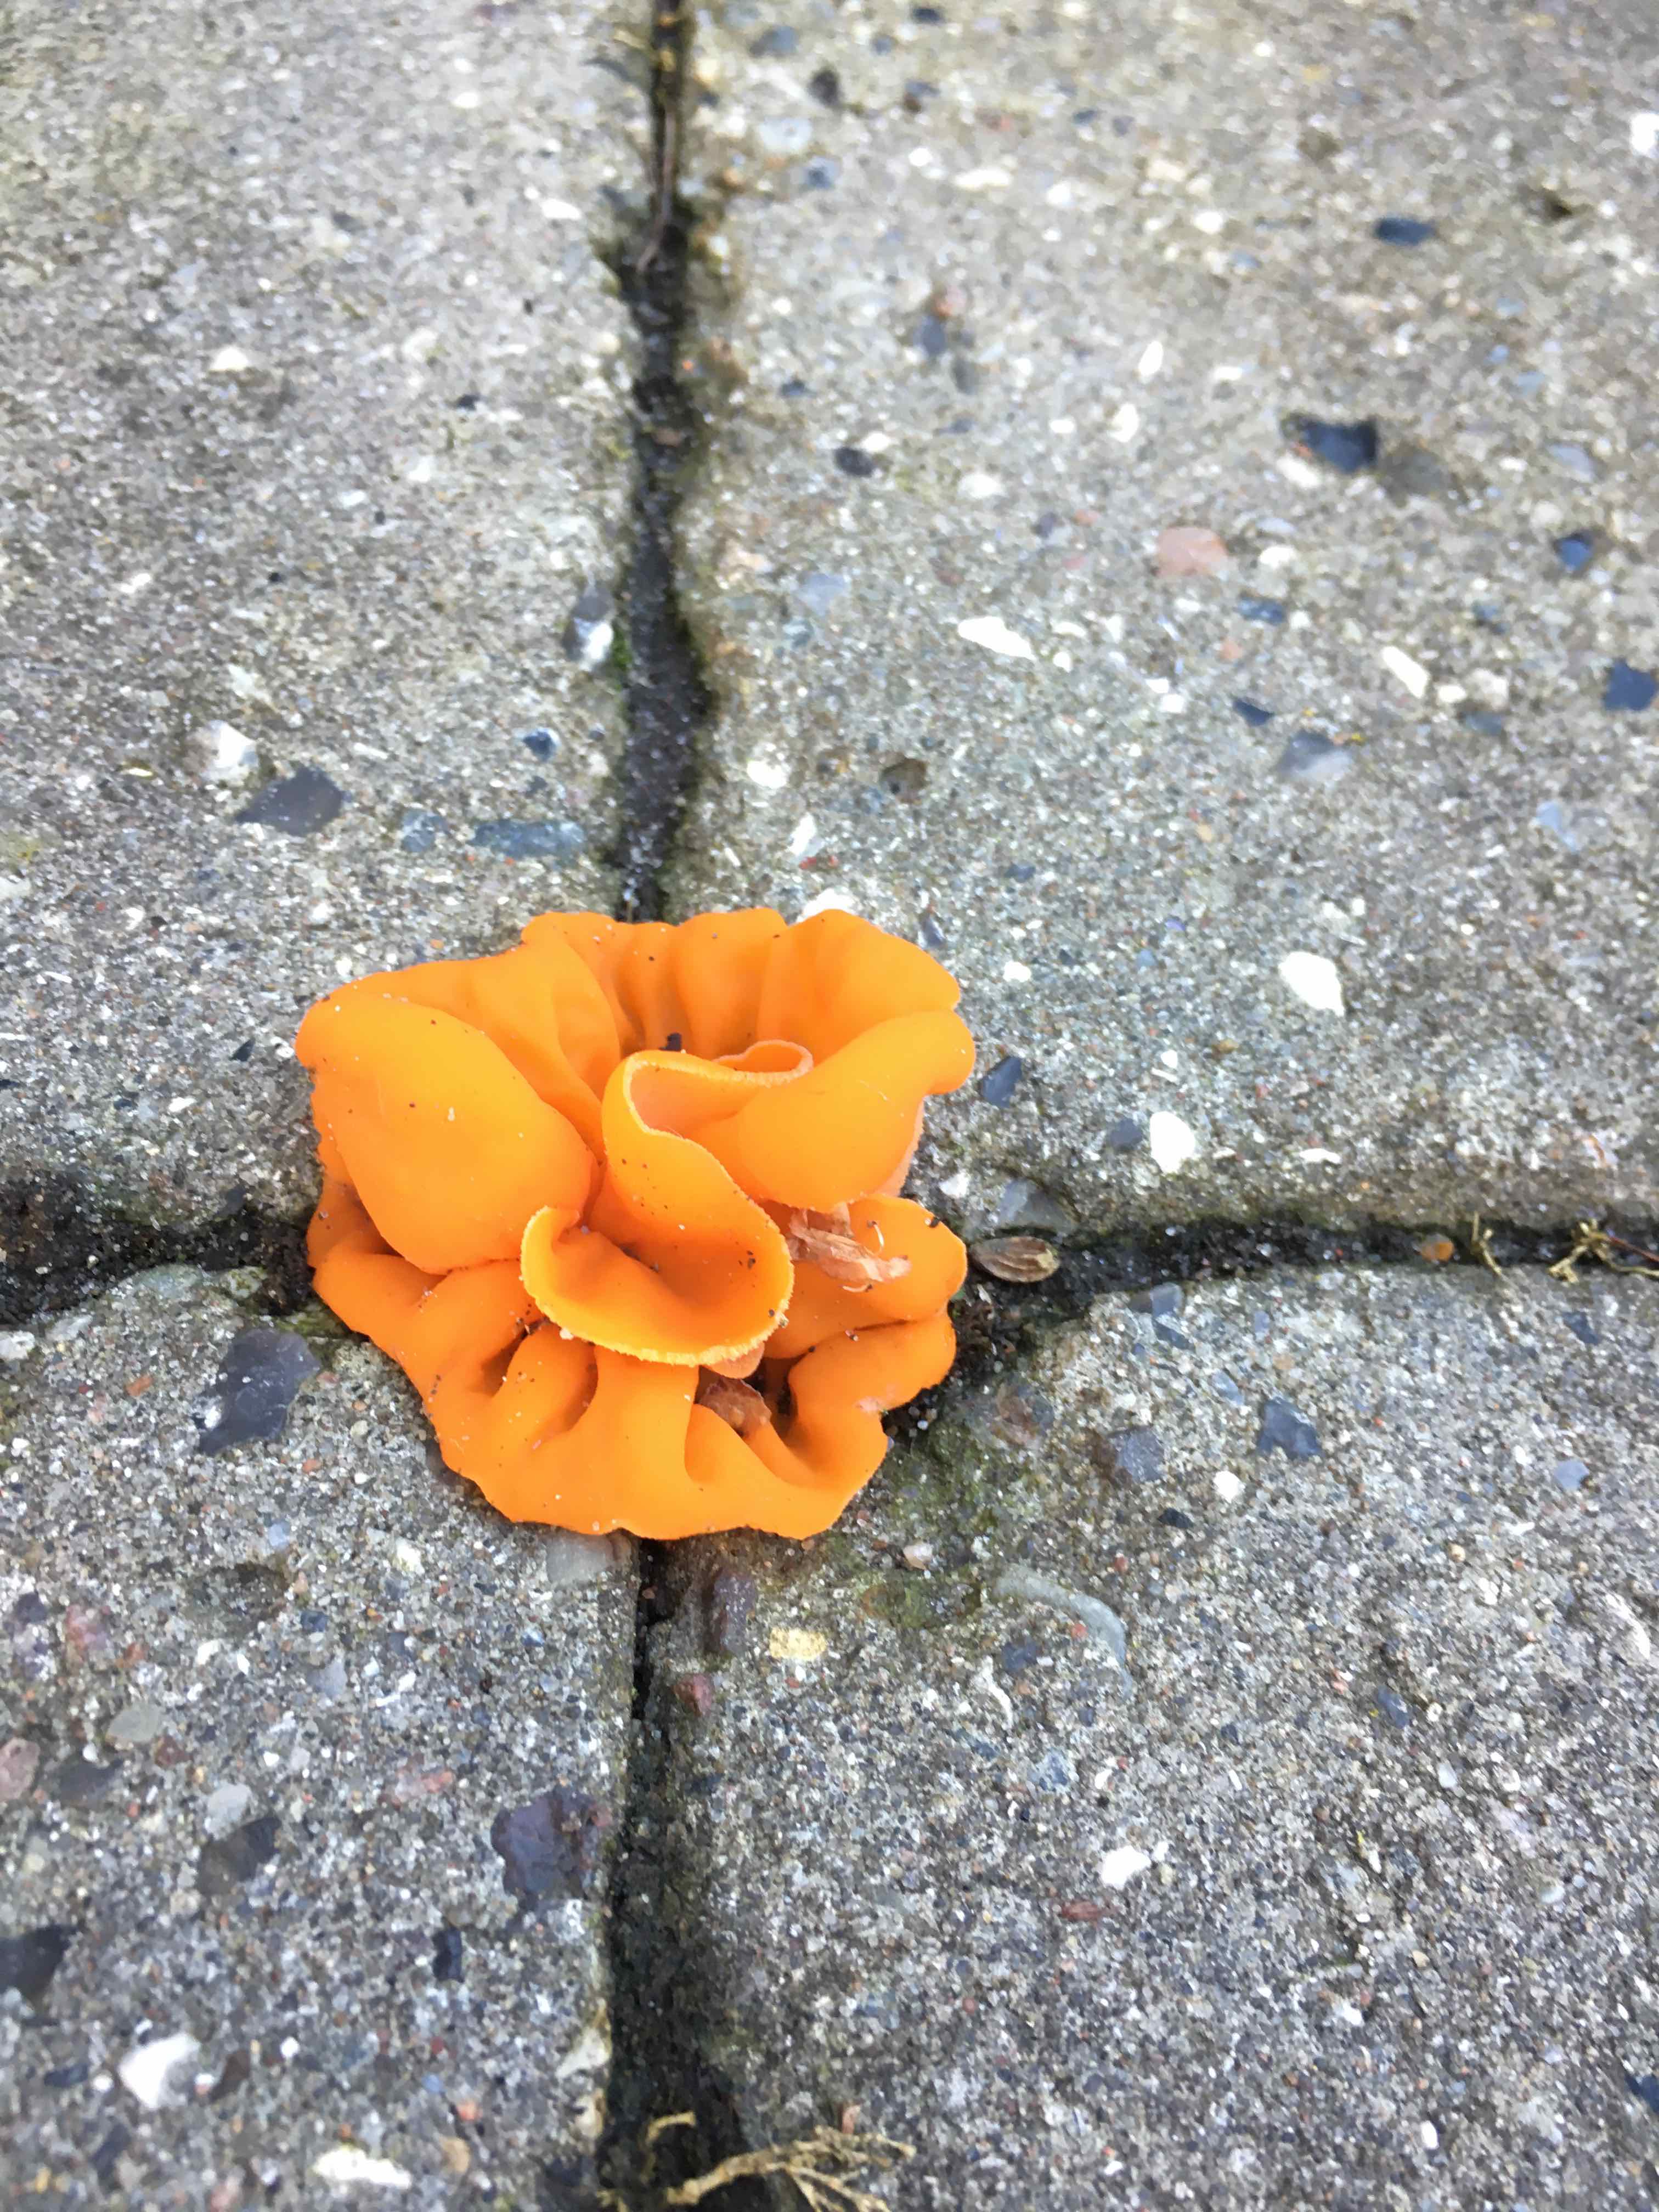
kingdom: Fungi
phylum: Ascomycota
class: Pezizomycetes
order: Pezizales
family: Pyronemataceae
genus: Aleuria
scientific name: Aleuria aurantia
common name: almindelig orangebæger
